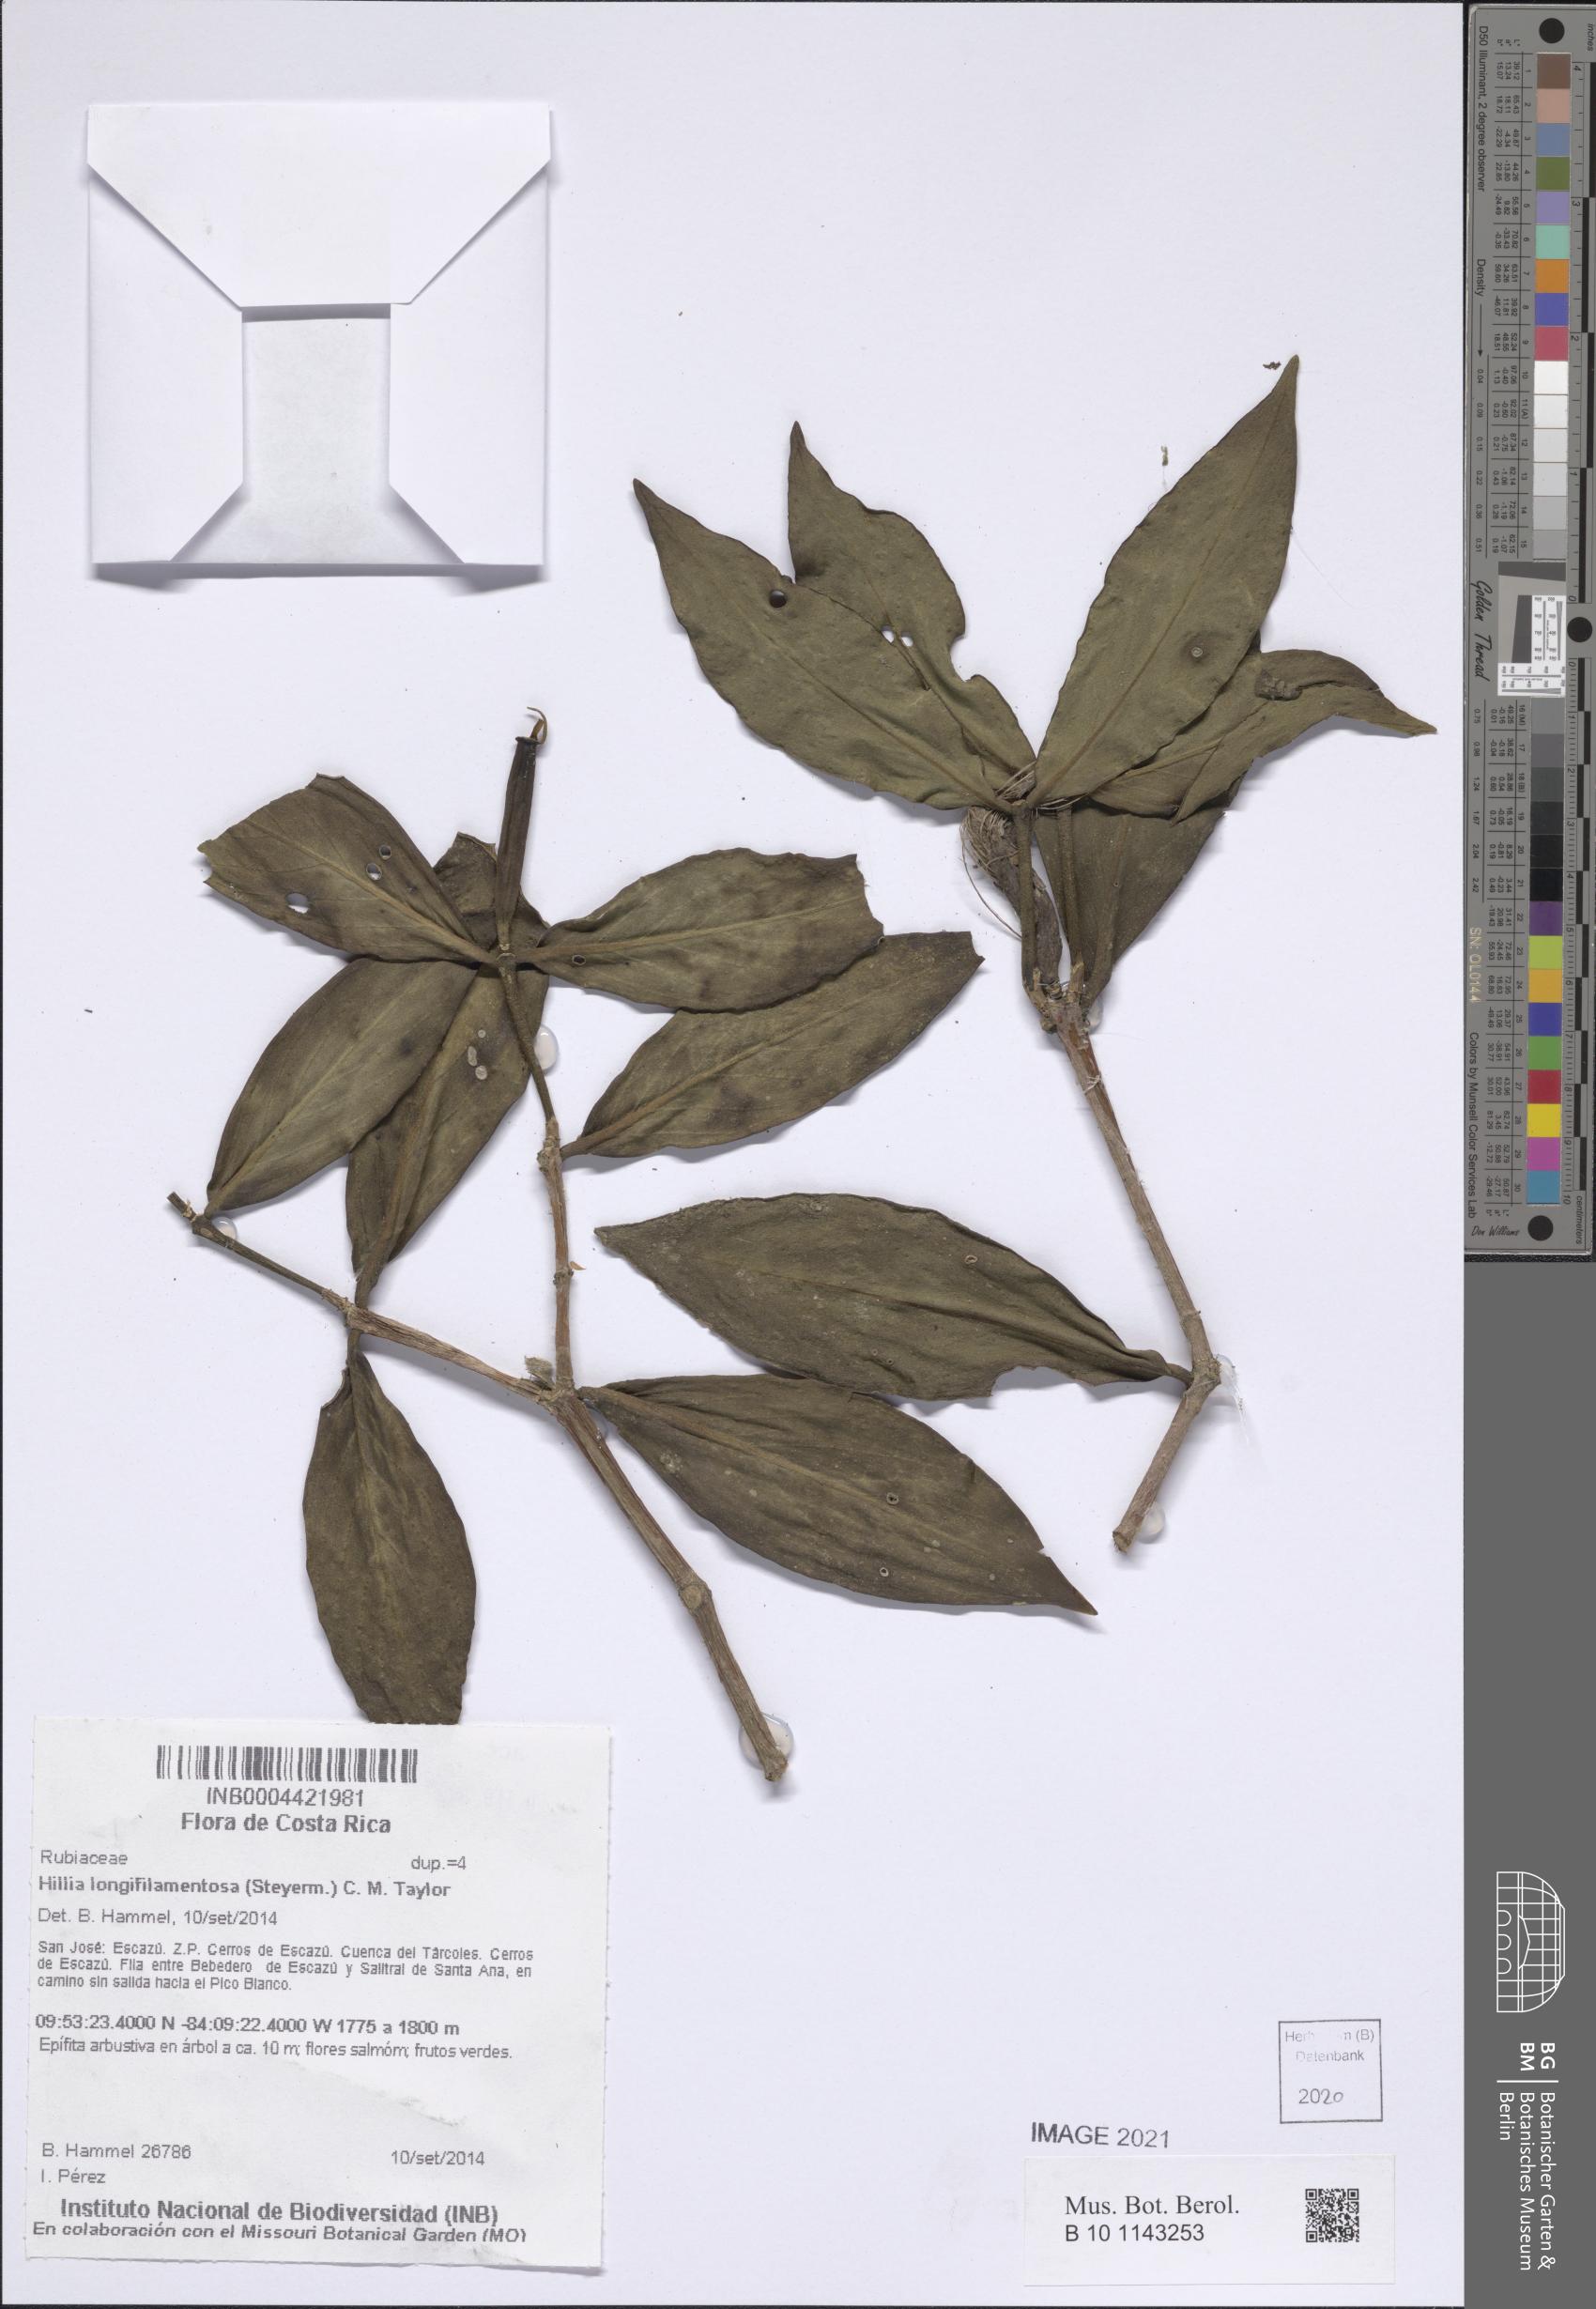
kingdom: Plantae
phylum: Tracheophyta
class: Magnoliopsida
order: Gentianales
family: Rubiaceae
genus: Hillia
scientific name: Hillia longifilamentosa
